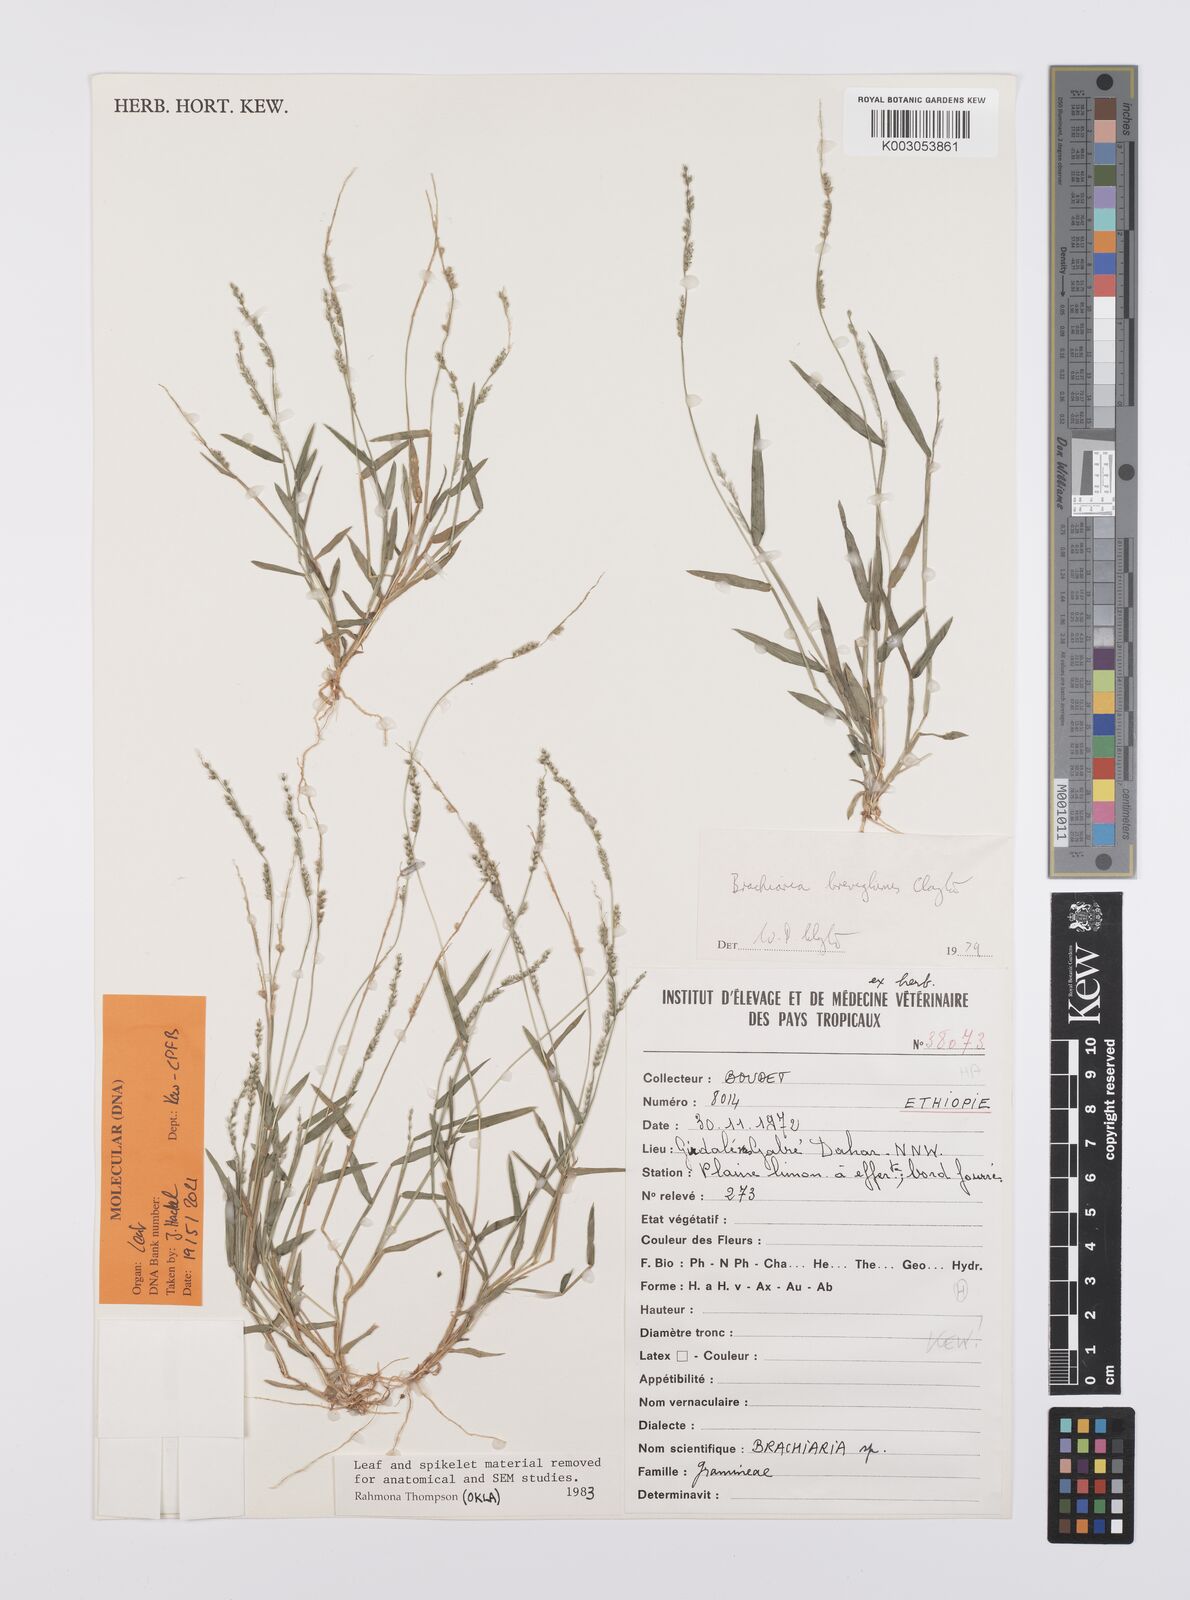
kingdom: Plantae
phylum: Tracheophyta
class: Liliopsida
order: Poales
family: Poaceae
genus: Urochloa
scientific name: Urochloa Brachiaria breviglumis
